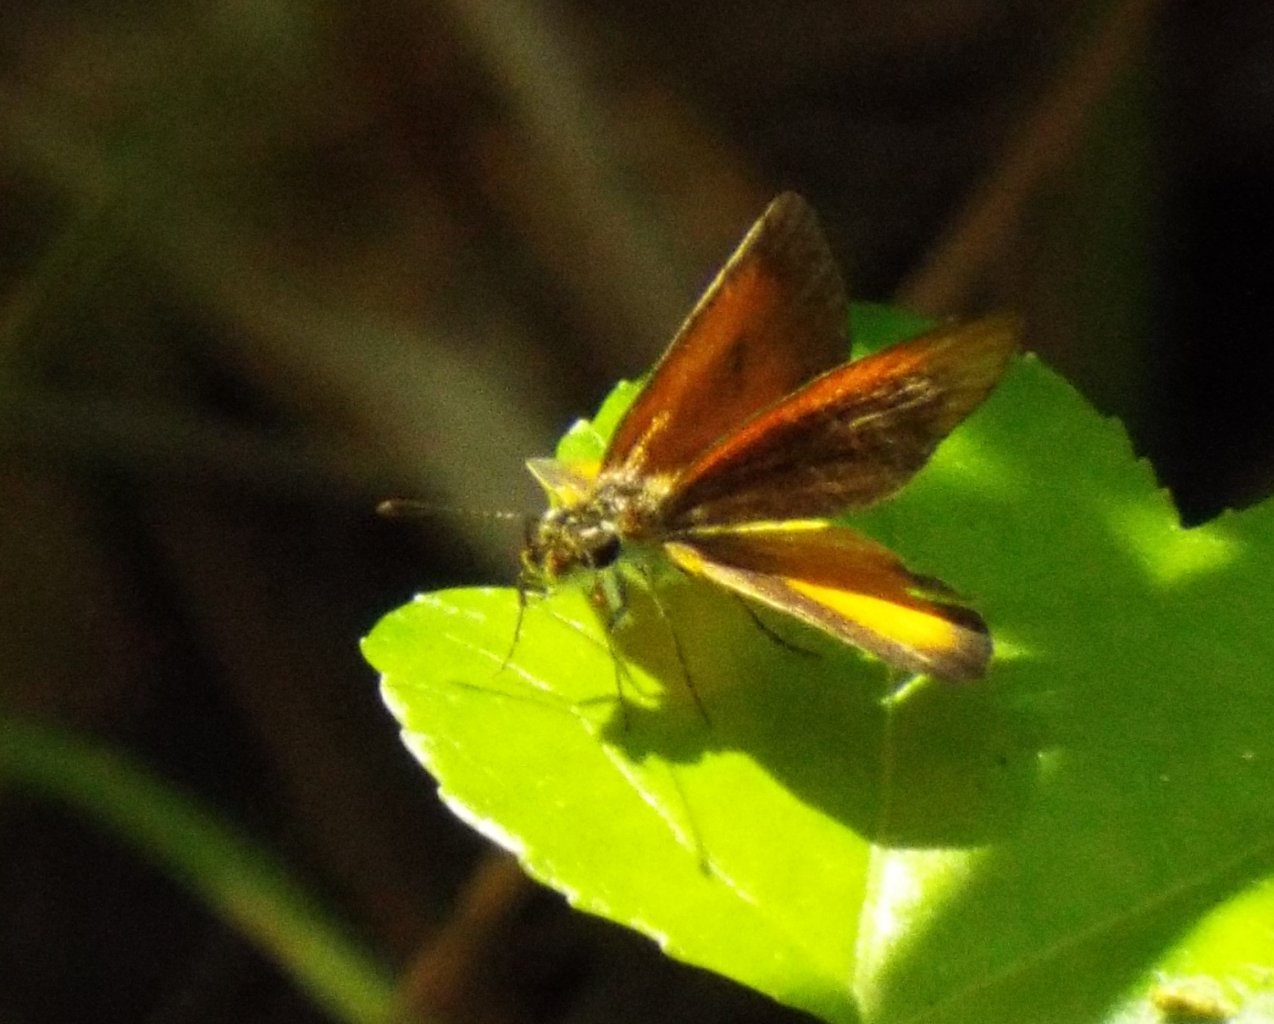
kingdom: Animalia
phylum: Arthropoda
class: Insecta
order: Lepidoptera
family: Hesperiidae
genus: Ancyloxypha
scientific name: Ancyloxypha numitor
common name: Least Skipper
